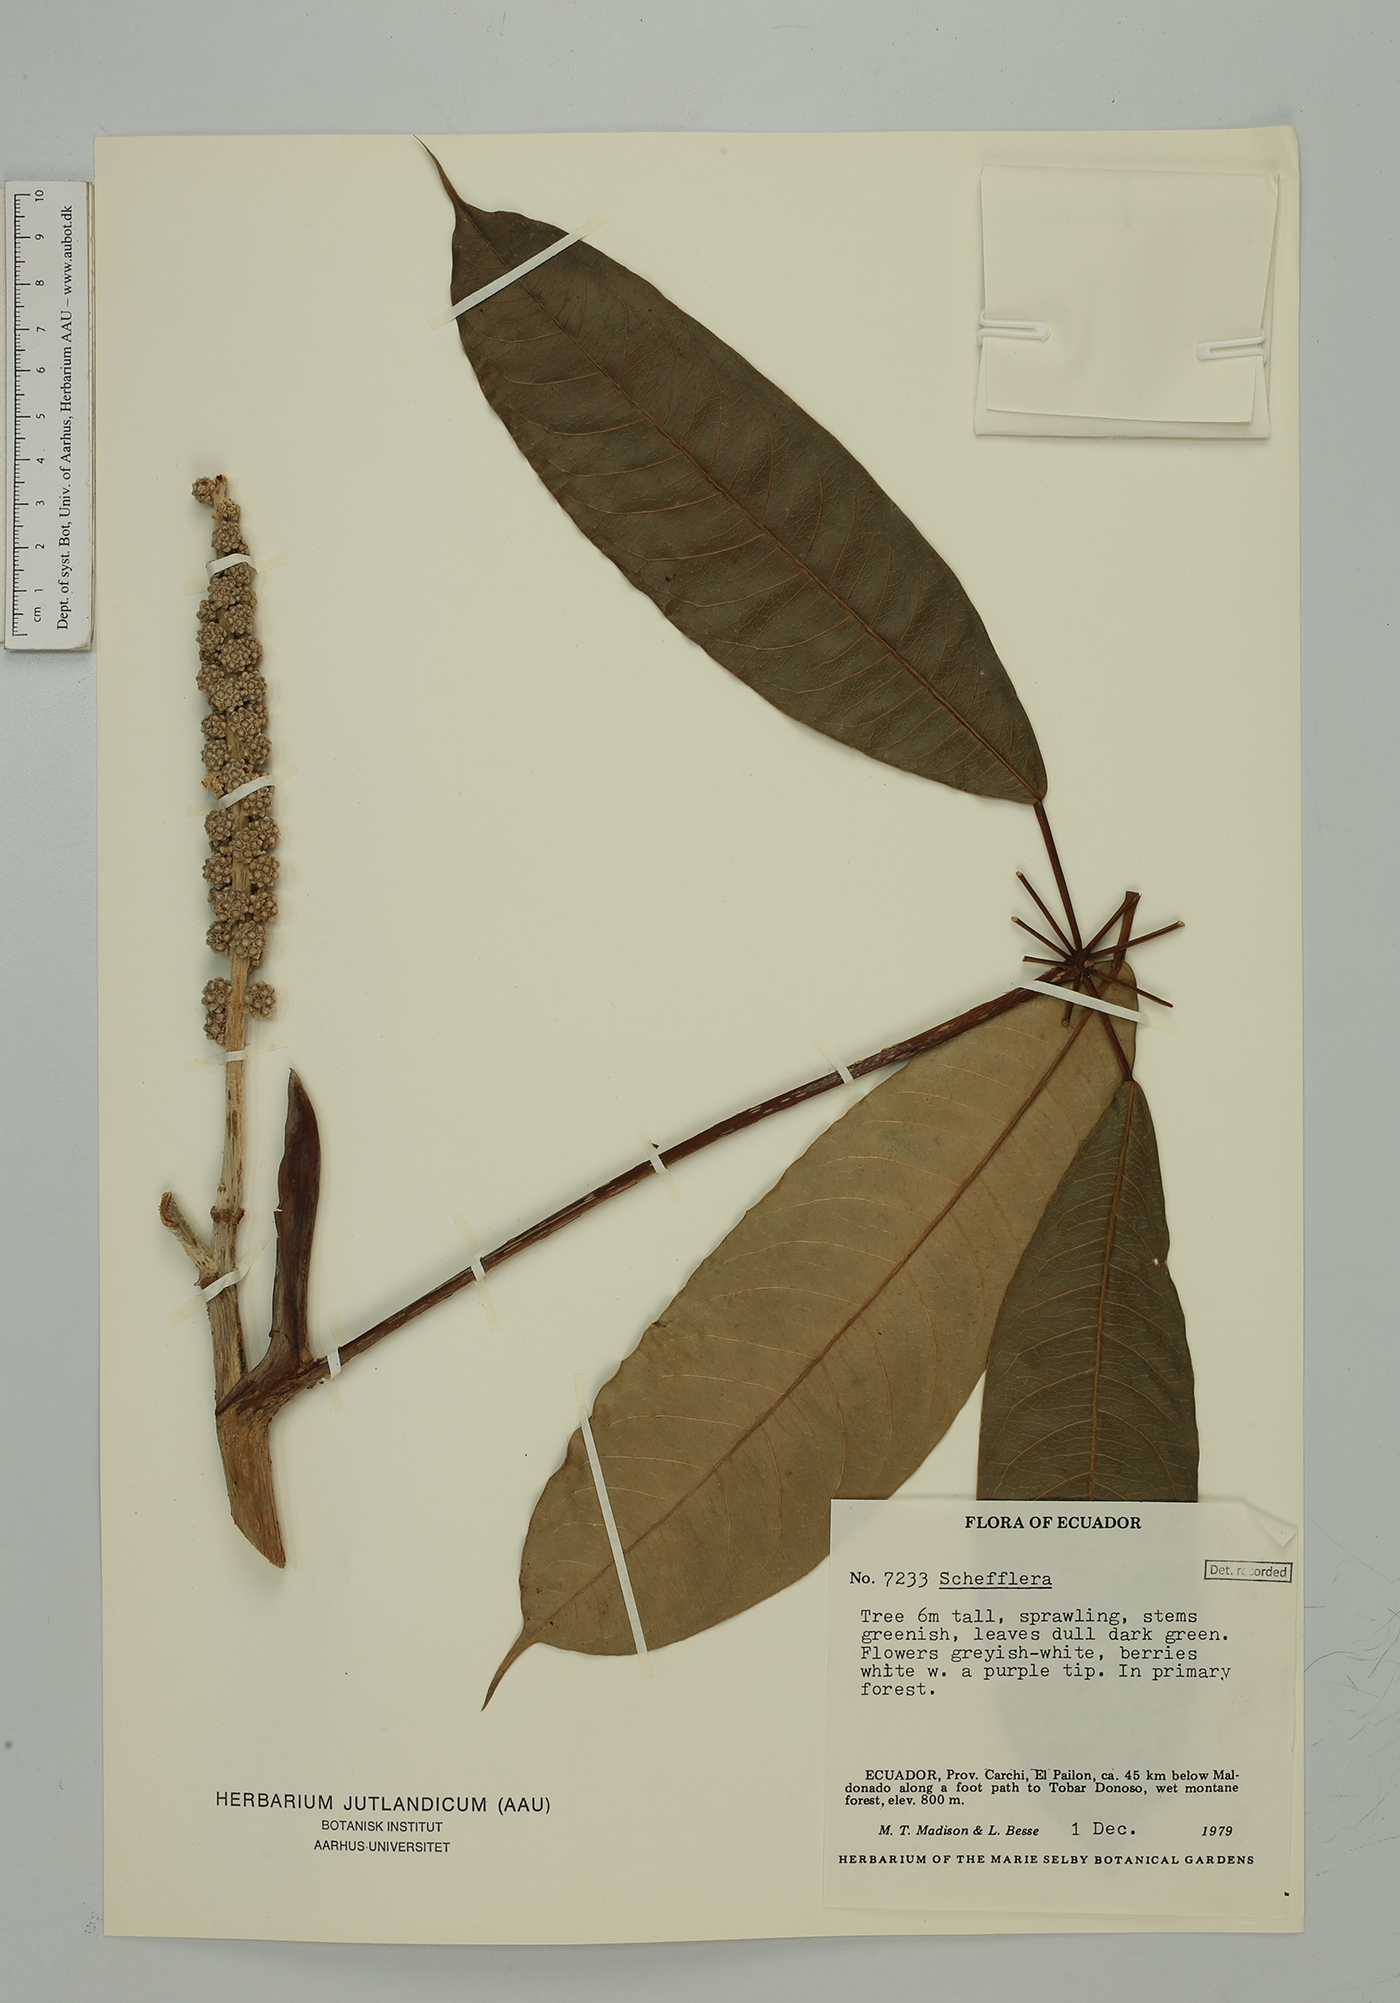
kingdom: Plantae
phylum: Tracheophyta
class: Magnoliopsida
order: Apiales
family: Araliaceae
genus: Sciodaphyllum
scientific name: Sciodaphyllum
